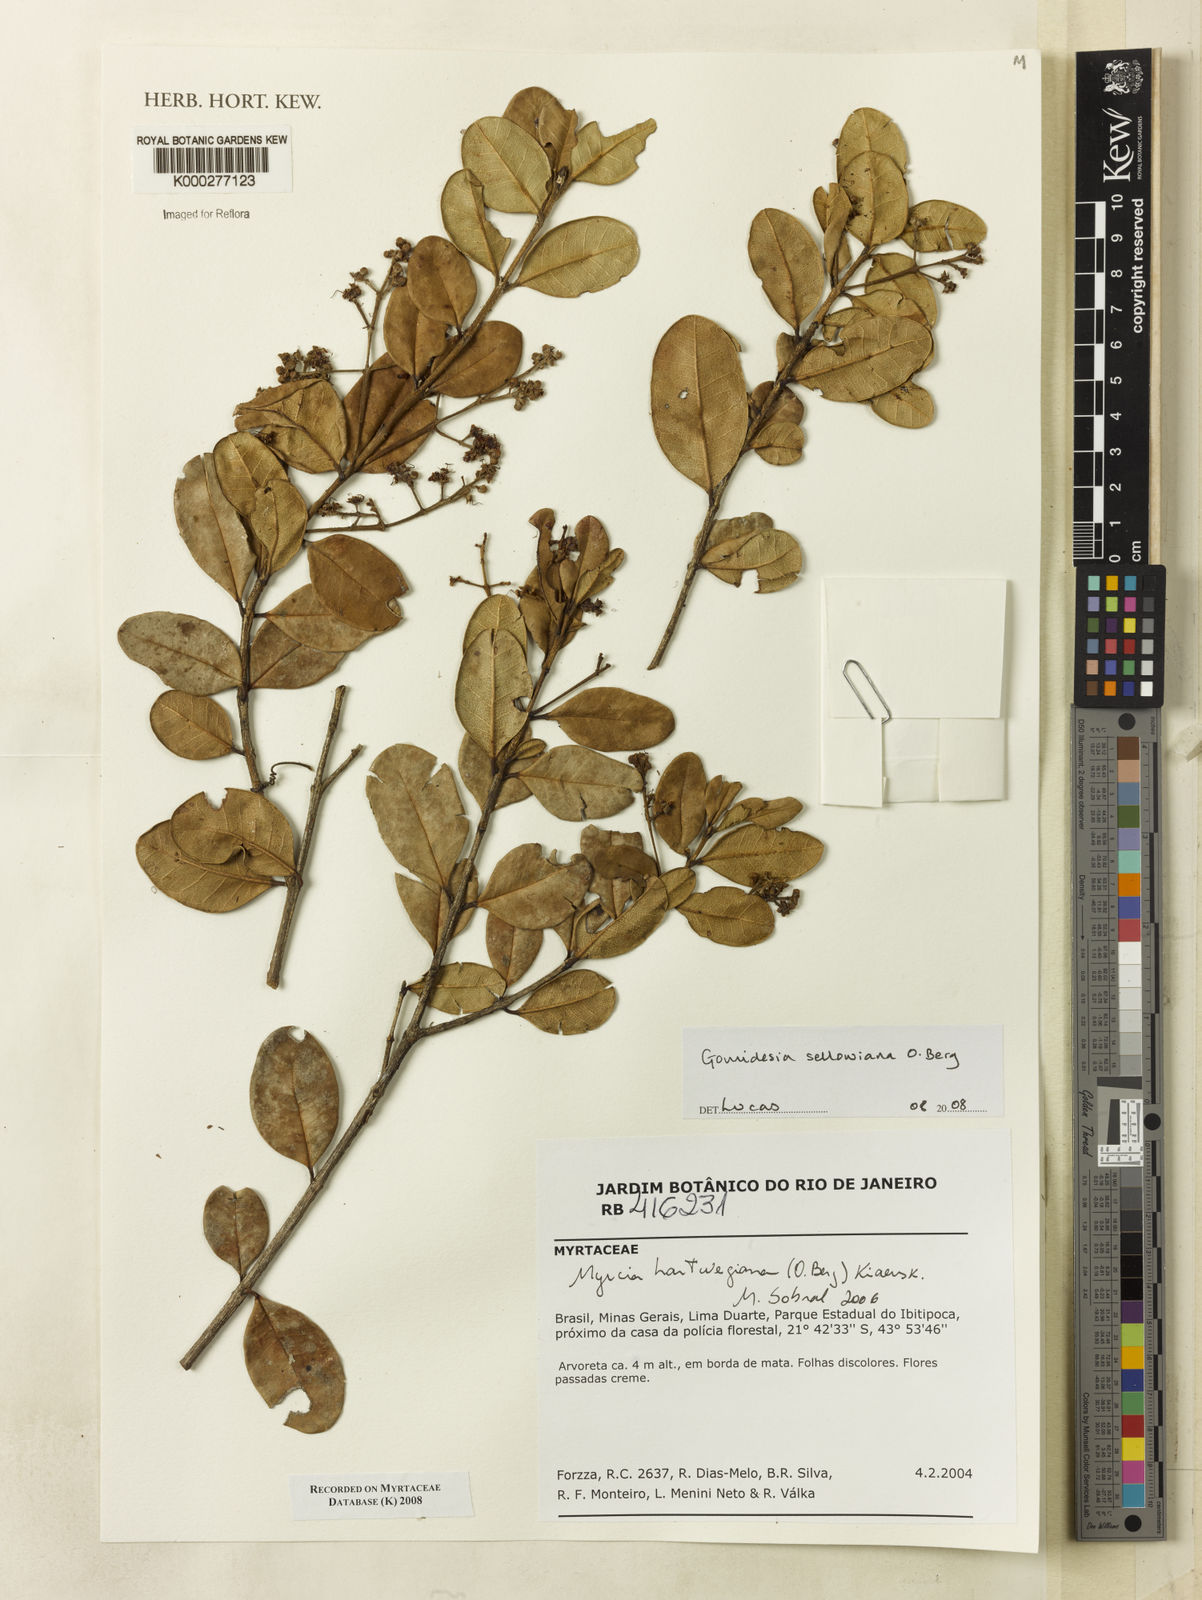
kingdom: Plantae
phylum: Tracheophyta
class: Magnoliopsida
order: Myrtales
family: Myrtaceae
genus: Myrcia
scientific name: Myrcia hartwegiana
